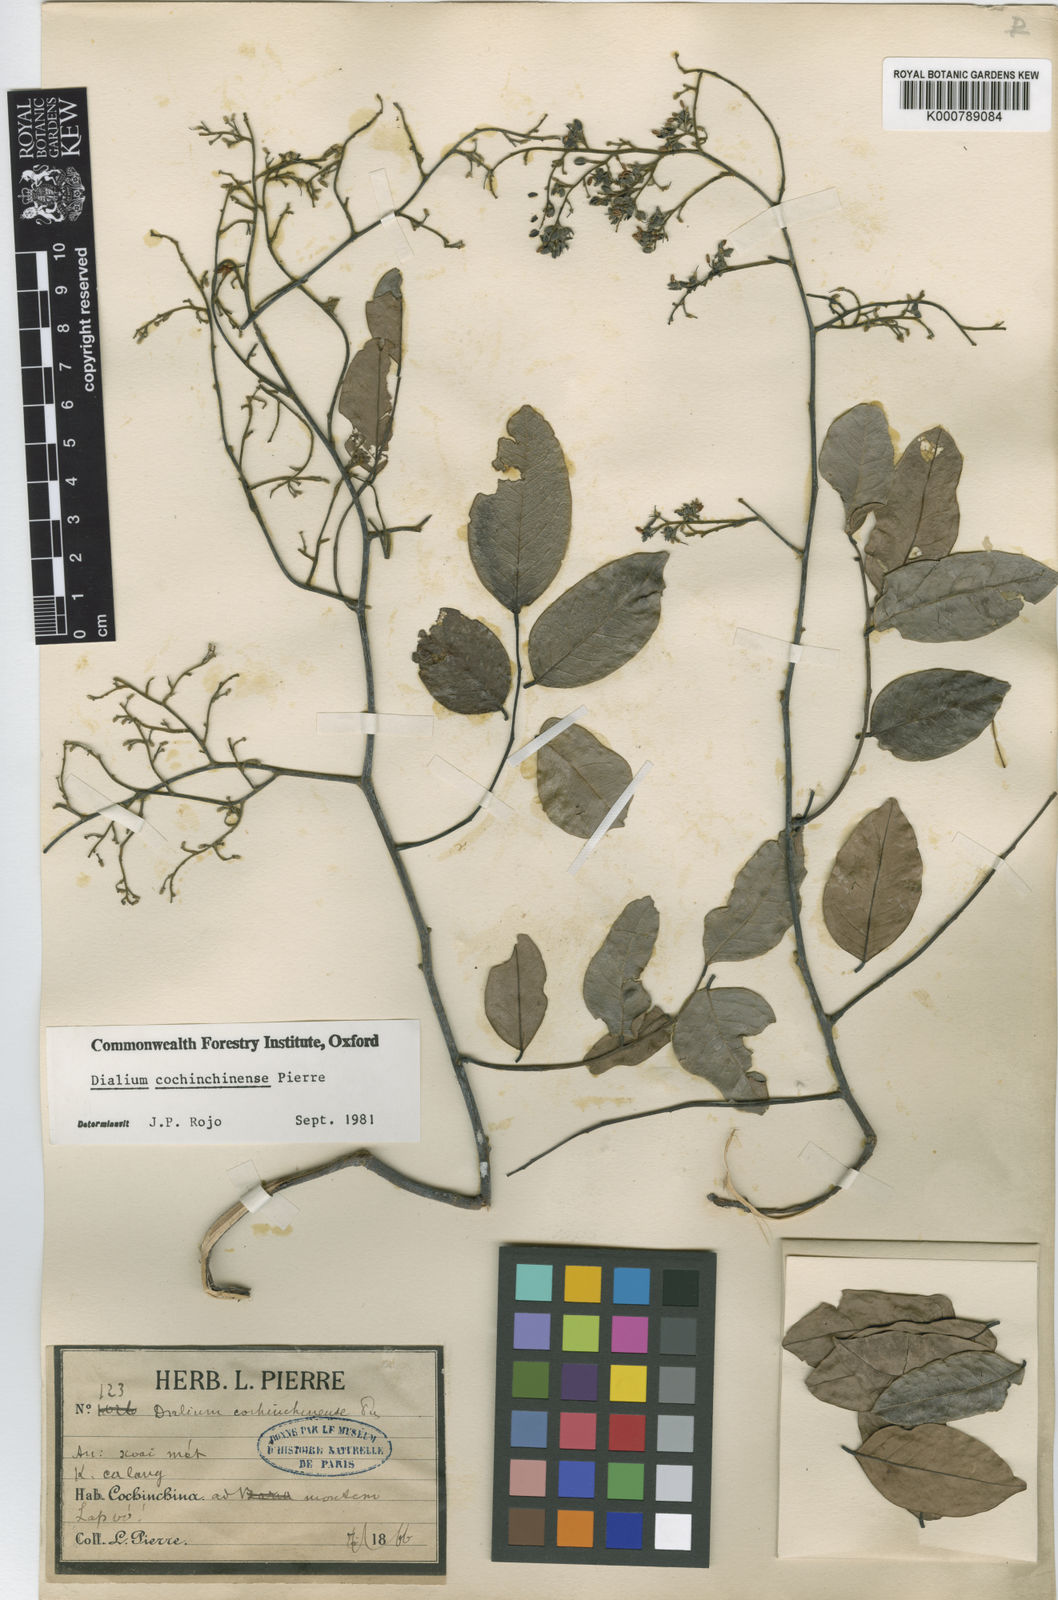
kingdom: Plantae
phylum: Tracheophyta
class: Magnoliopsida
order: Fabales
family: Fabaceae
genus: Dialium
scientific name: Dialium cochinchinense
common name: Velvet tamarind
